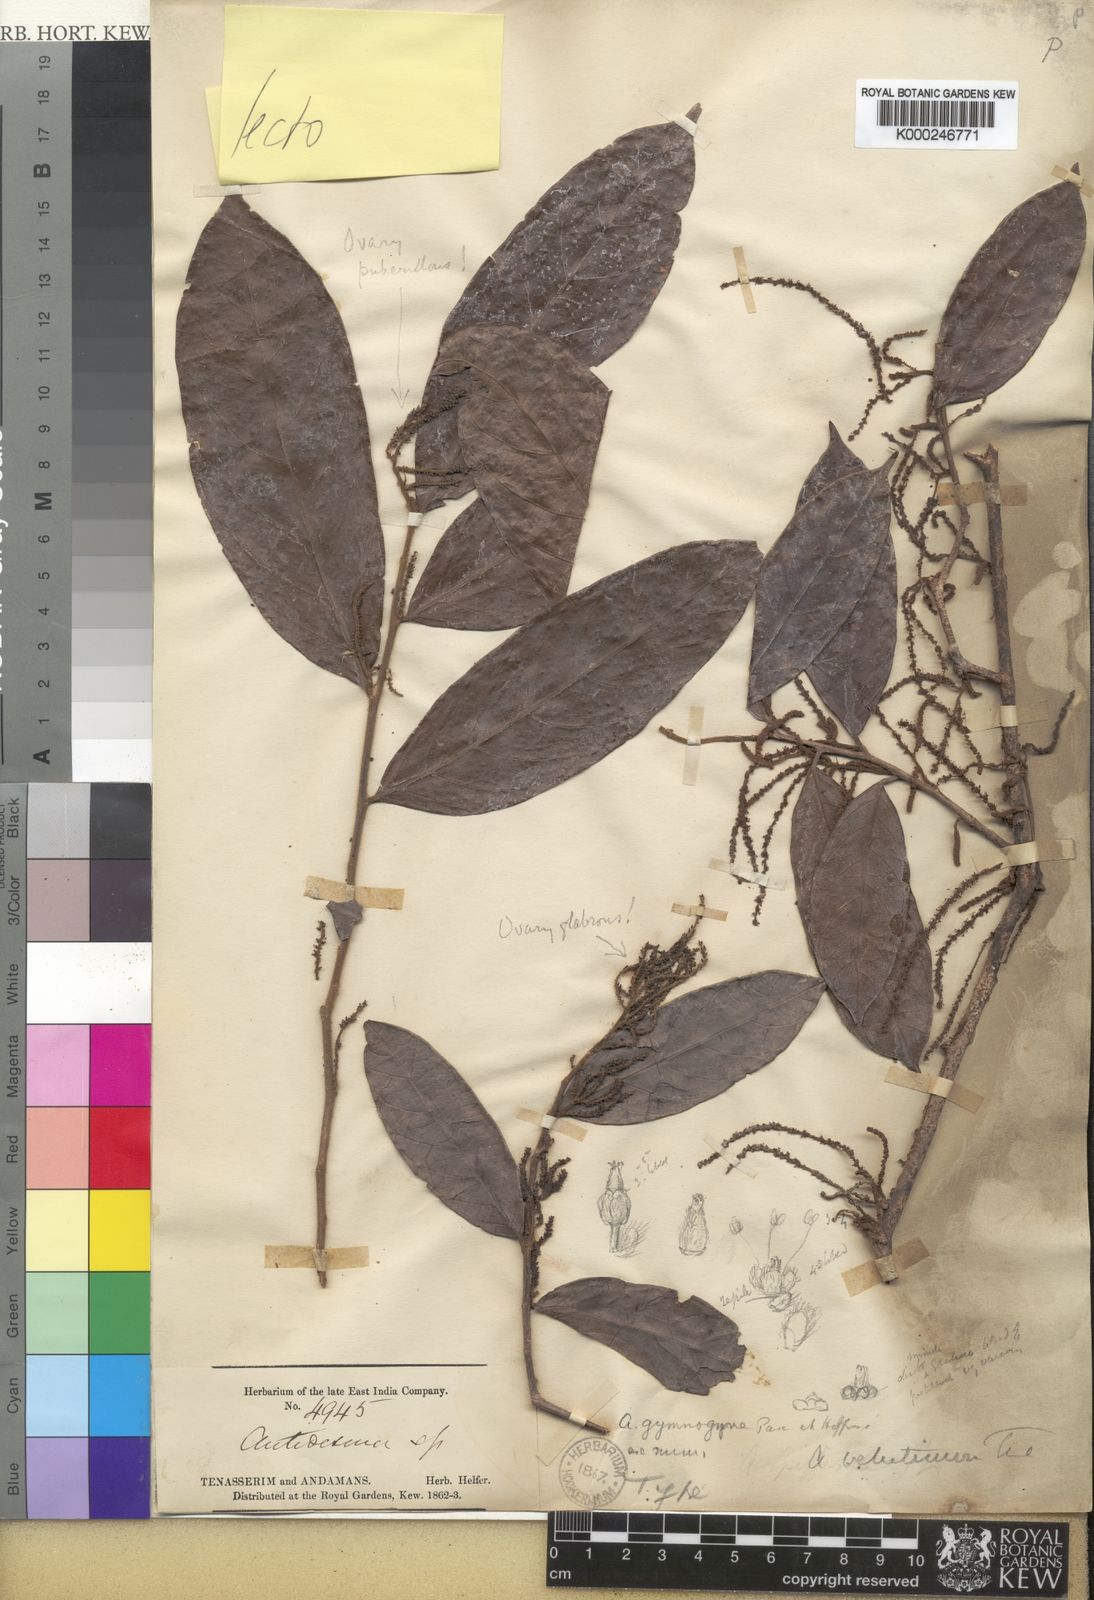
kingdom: Plantae
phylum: Tracheophyta
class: Magnoliopsida
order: Malpighiales
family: Phyllanthaceae
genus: Antidesma
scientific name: Antidesma velutinum
